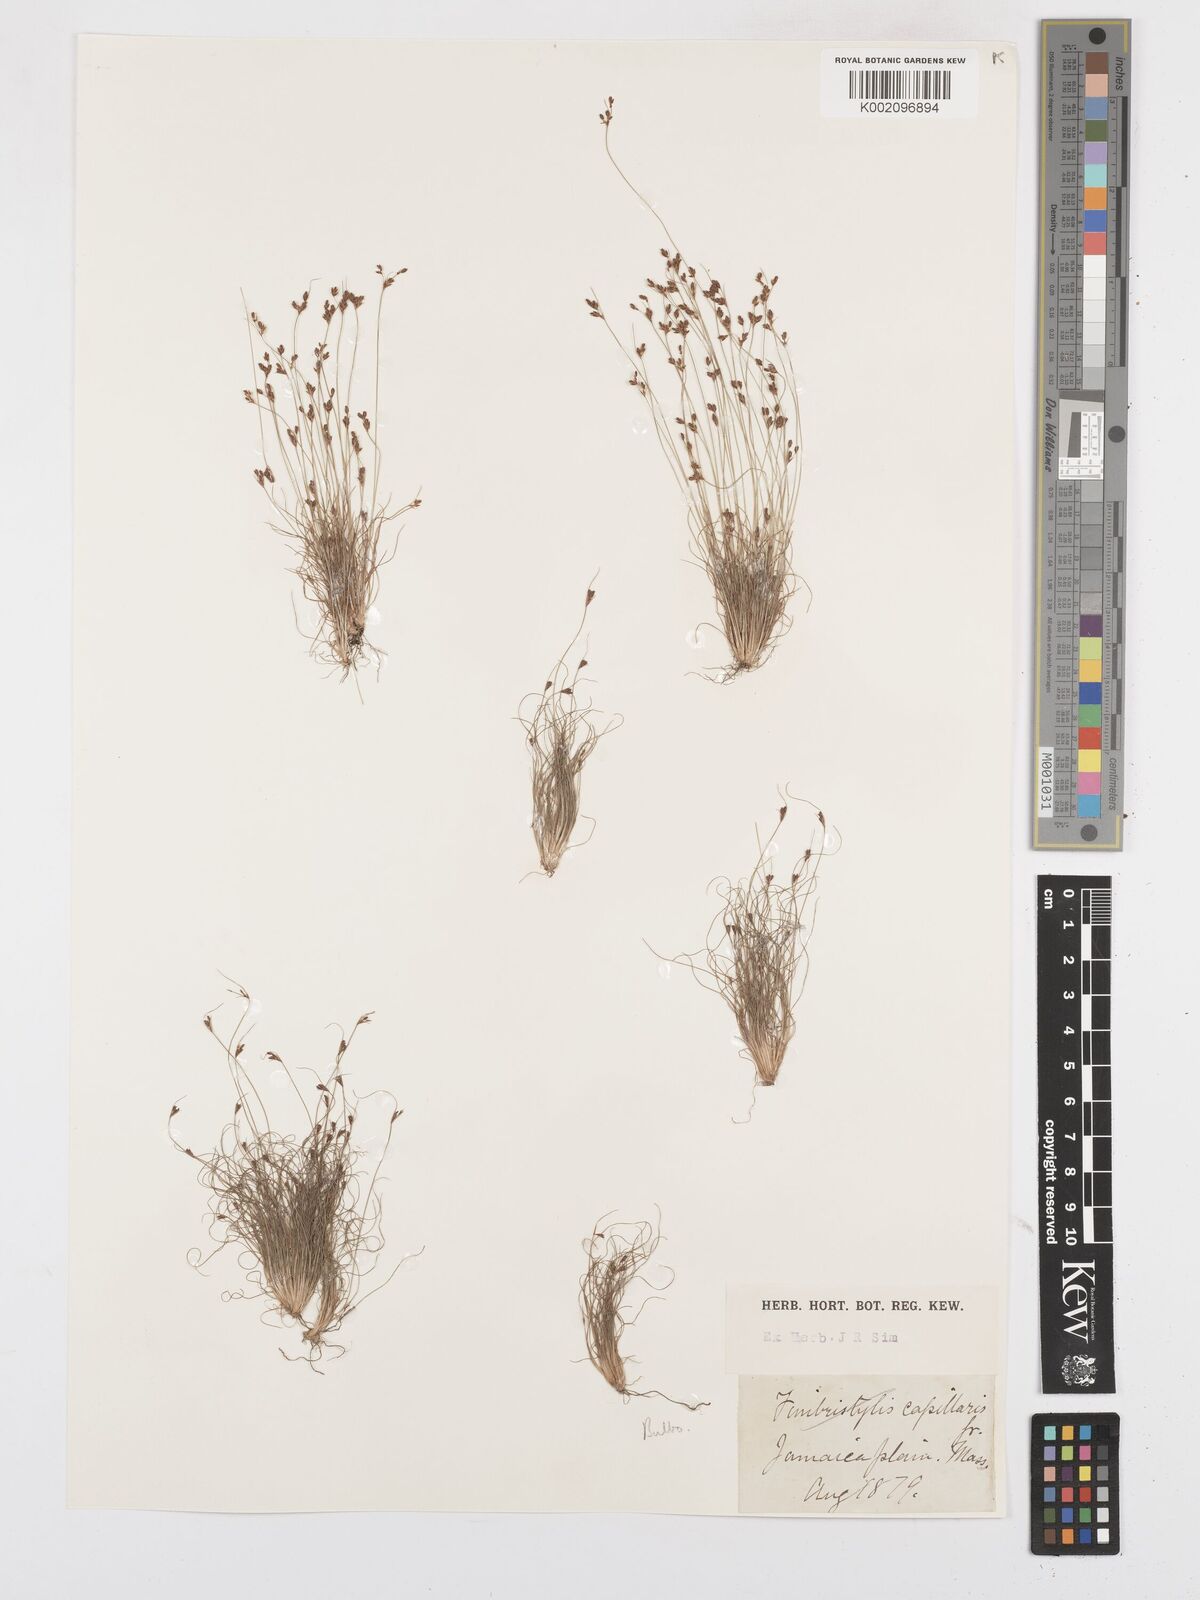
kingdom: Plantae
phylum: Tracheophyta
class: Liliopsida
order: Poales
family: Cyperaceae
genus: Bulbostylis
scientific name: Bulbostylis capillaris
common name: Densetuft hairsedge
